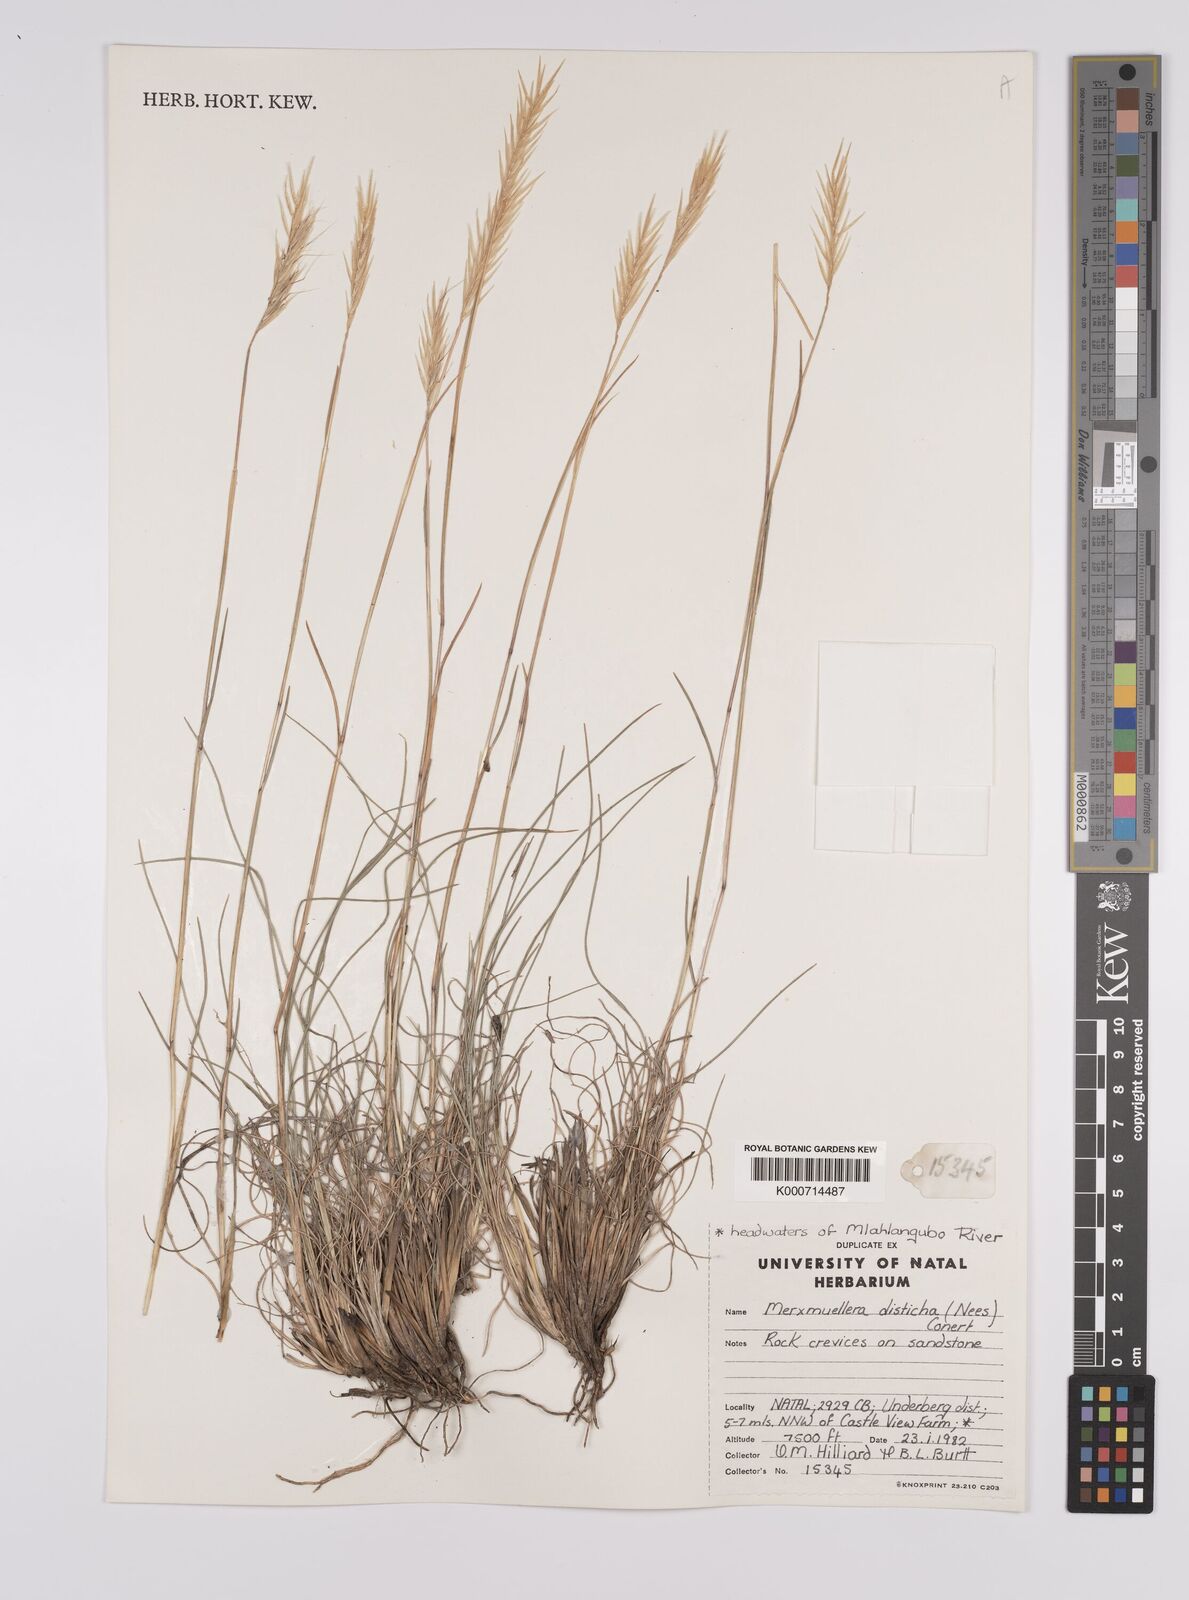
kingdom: Plantae
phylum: Tracheophyta
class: Liliopsida
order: Poales
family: Poaceae
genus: Tenaxia
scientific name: Tenaxia disticha
